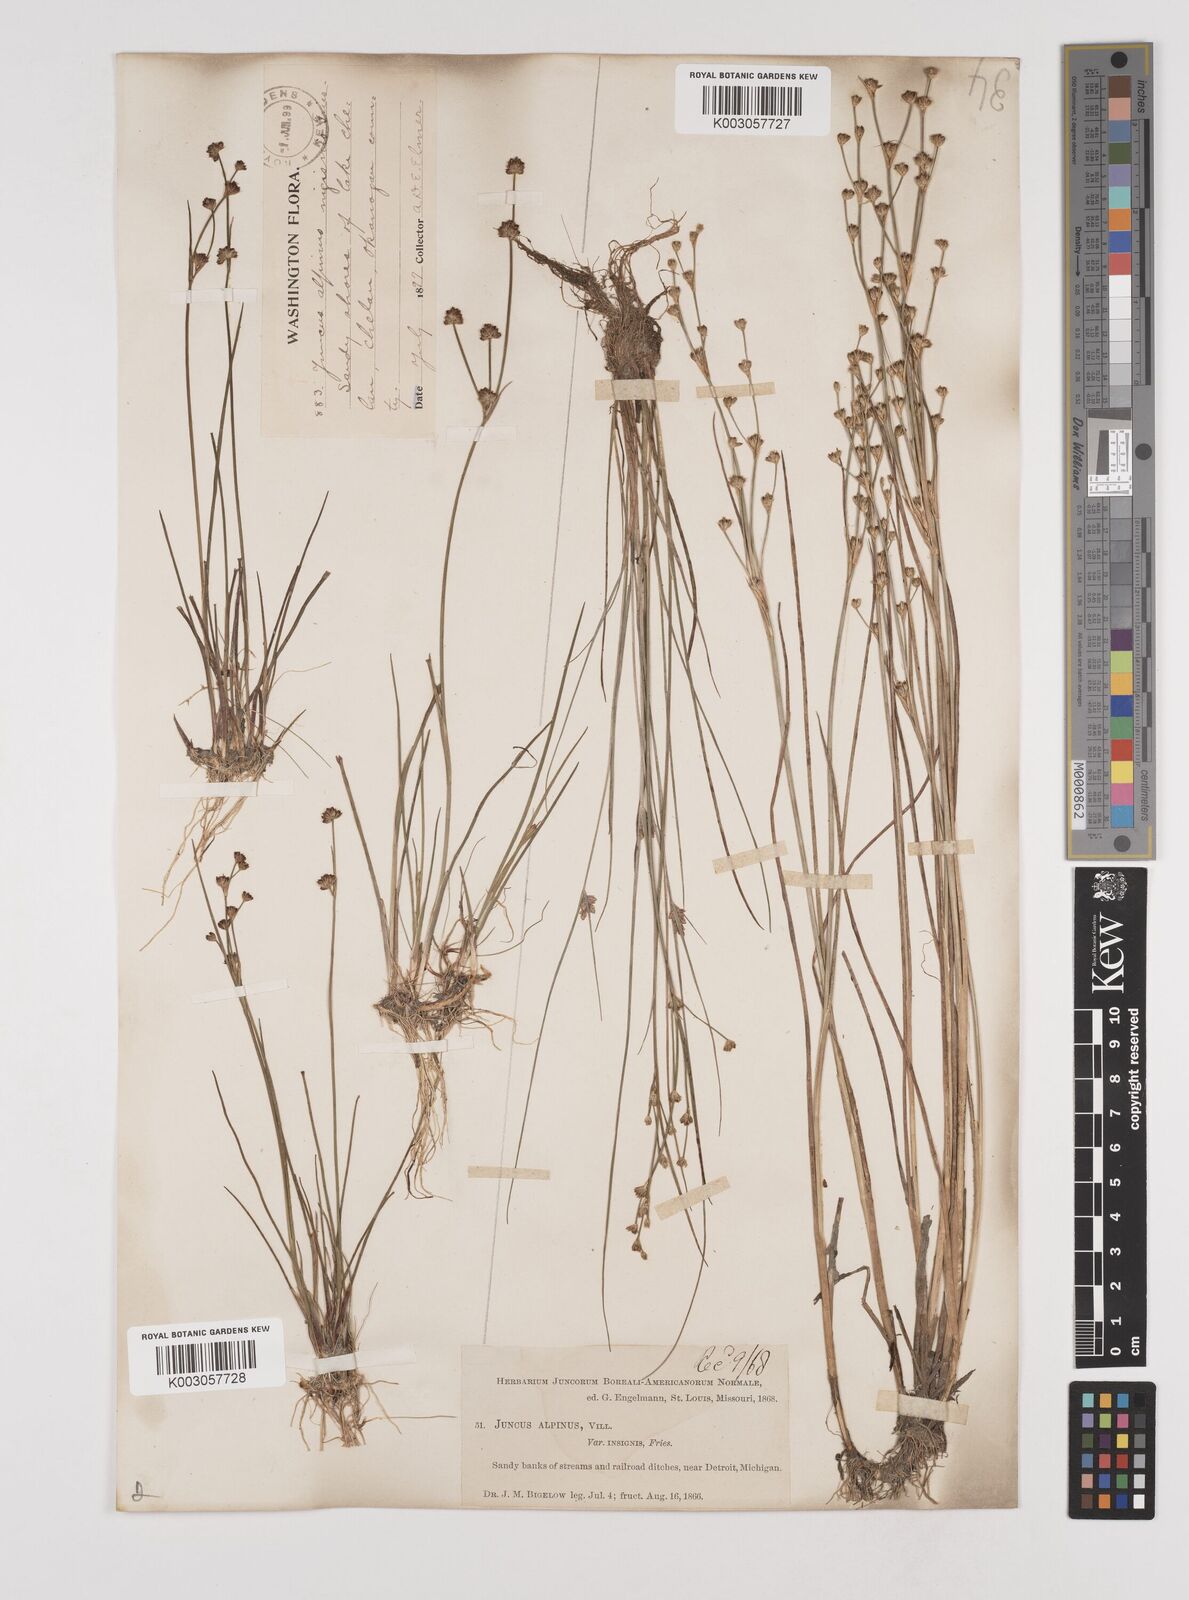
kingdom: Plantae
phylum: Tracheophyta
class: Liliopsida
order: Poales
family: Juncaceae
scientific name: Juncaceae
